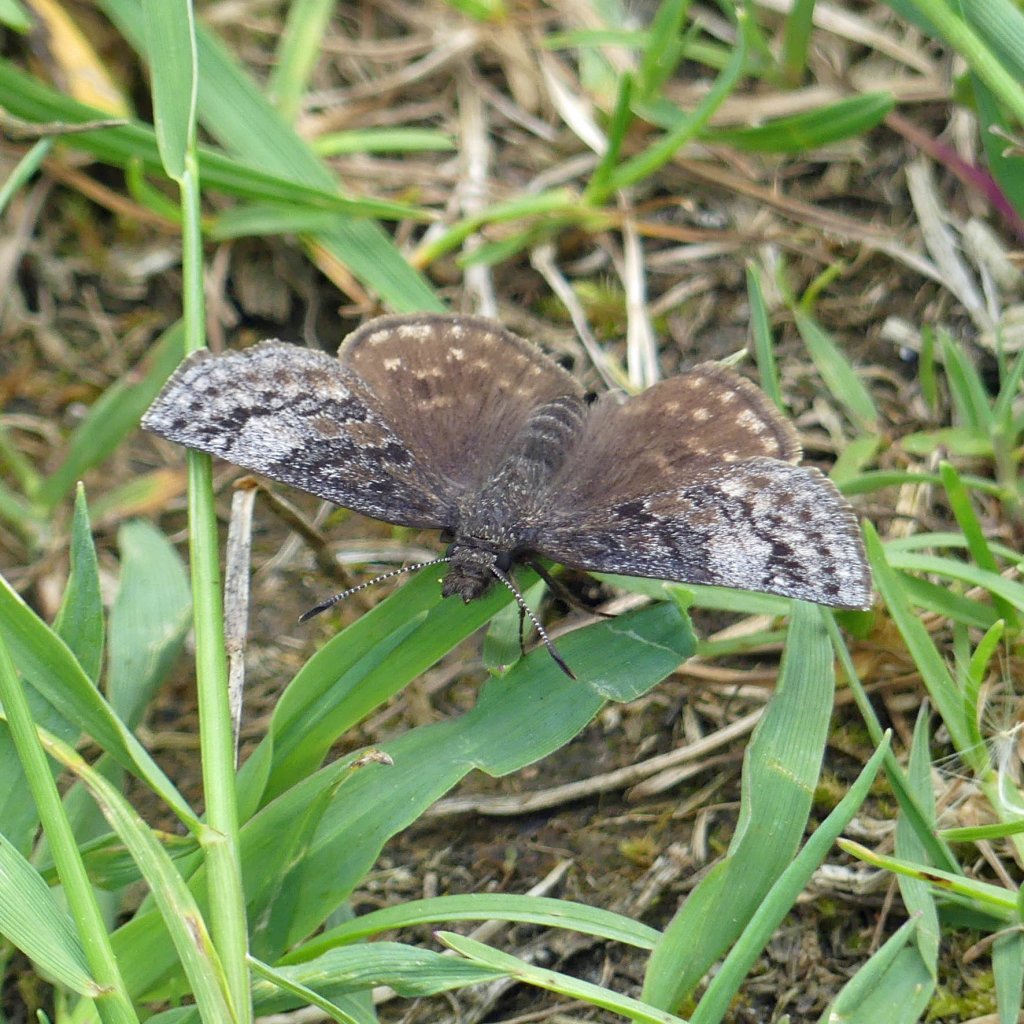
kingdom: Animalia
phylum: Arthropoda
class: Insecta
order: Lepidoptera
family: Hesperiidae
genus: Erynnis
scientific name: Erynnis icelus
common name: Dreamy Duskywing
